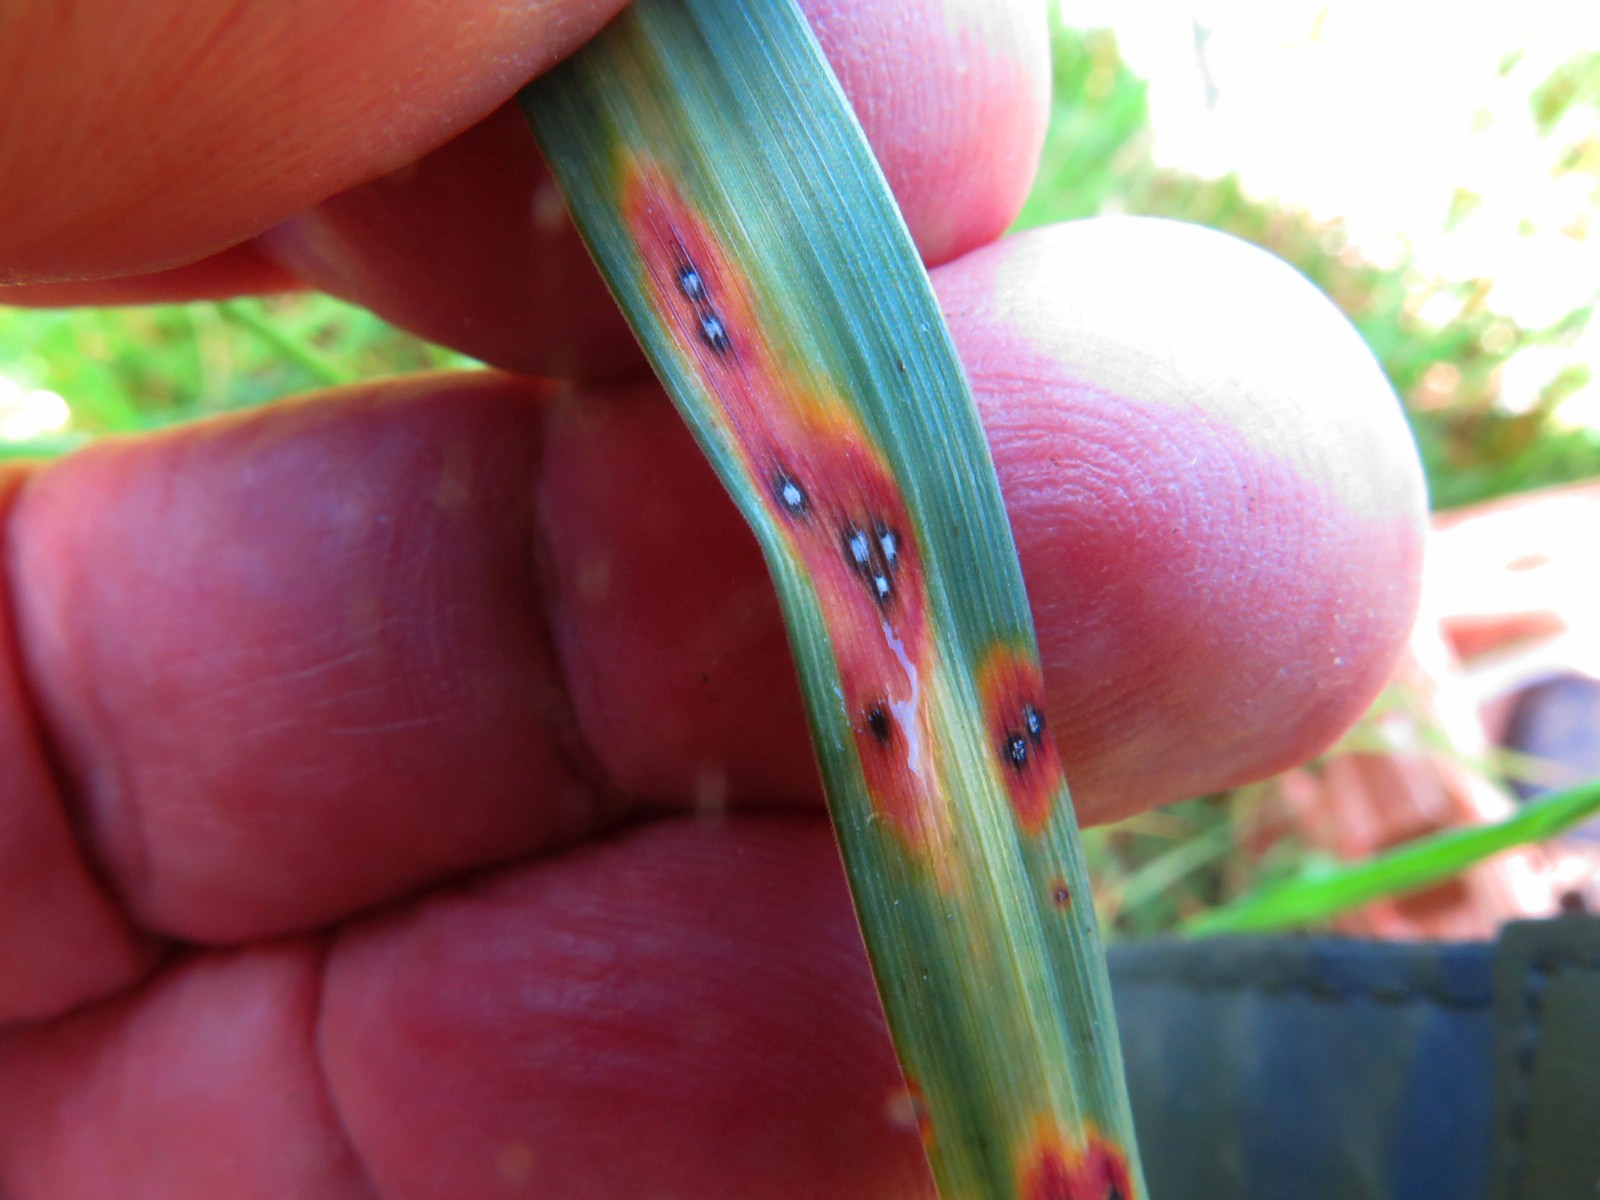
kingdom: Fungi
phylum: Ascomycota
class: Leotiomycetes
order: Helotiales
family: Ploettnerulaceae
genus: Mastigosporium
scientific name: Mastigosporium album
